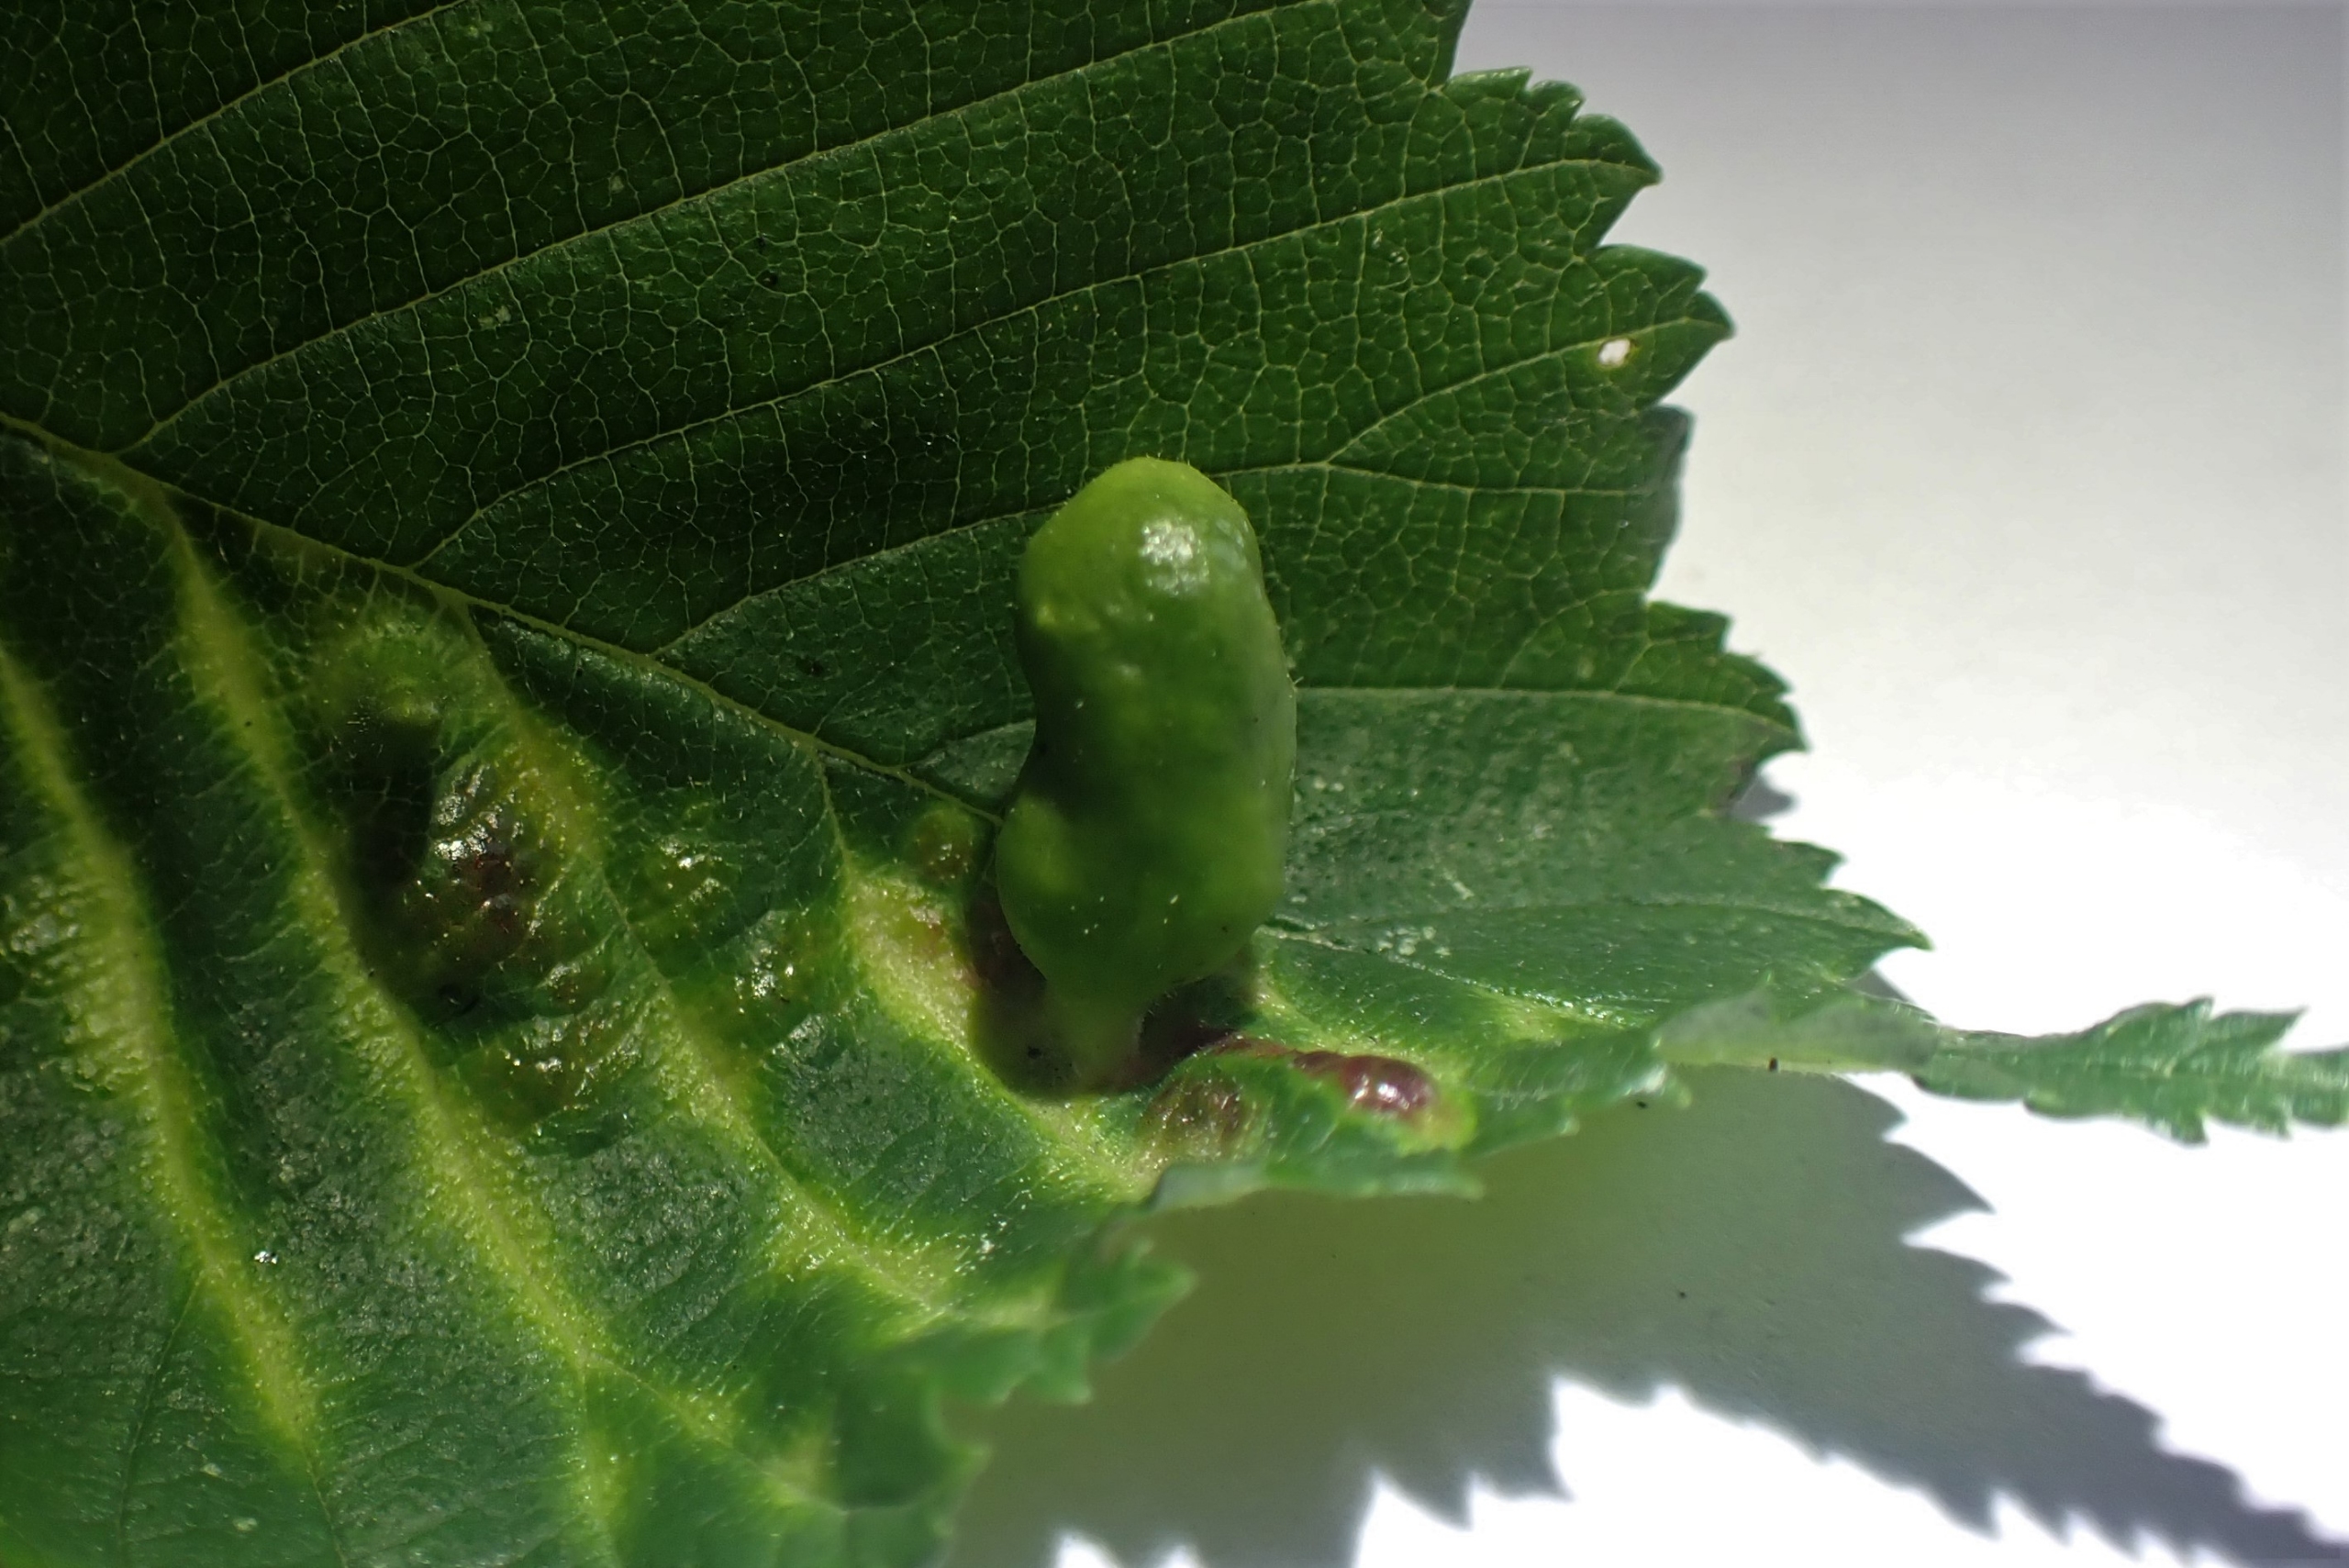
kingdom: Animalia
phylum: Arthropoda
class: Insecta
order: Hemiptera
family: Aphididae
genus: Tetraneura
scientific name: Tetraneura ulmi
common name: Elmegallelus
